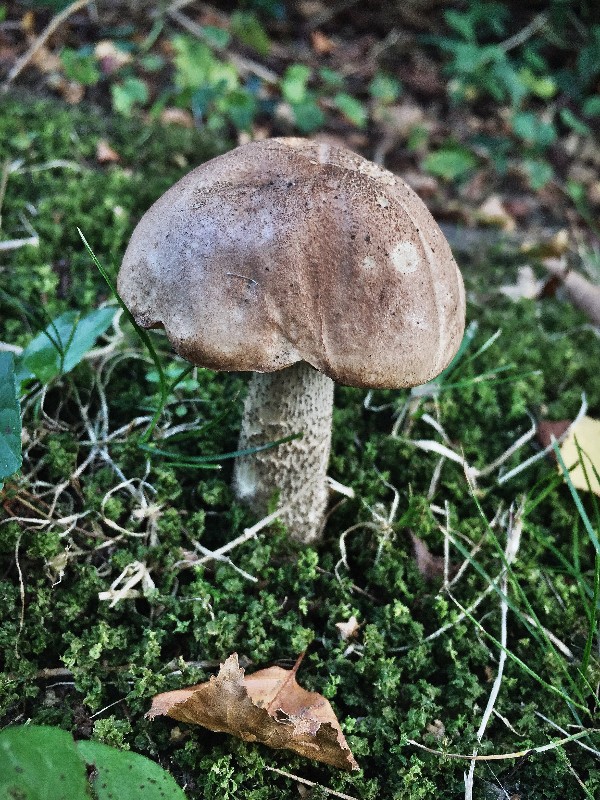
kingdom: Fungi
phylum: Basidiomycota
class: Agaricomycetes
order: Boletales
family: Boletaceae
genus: Leccinum
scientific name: Leccinum scabrum
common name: brun skælrørhat
